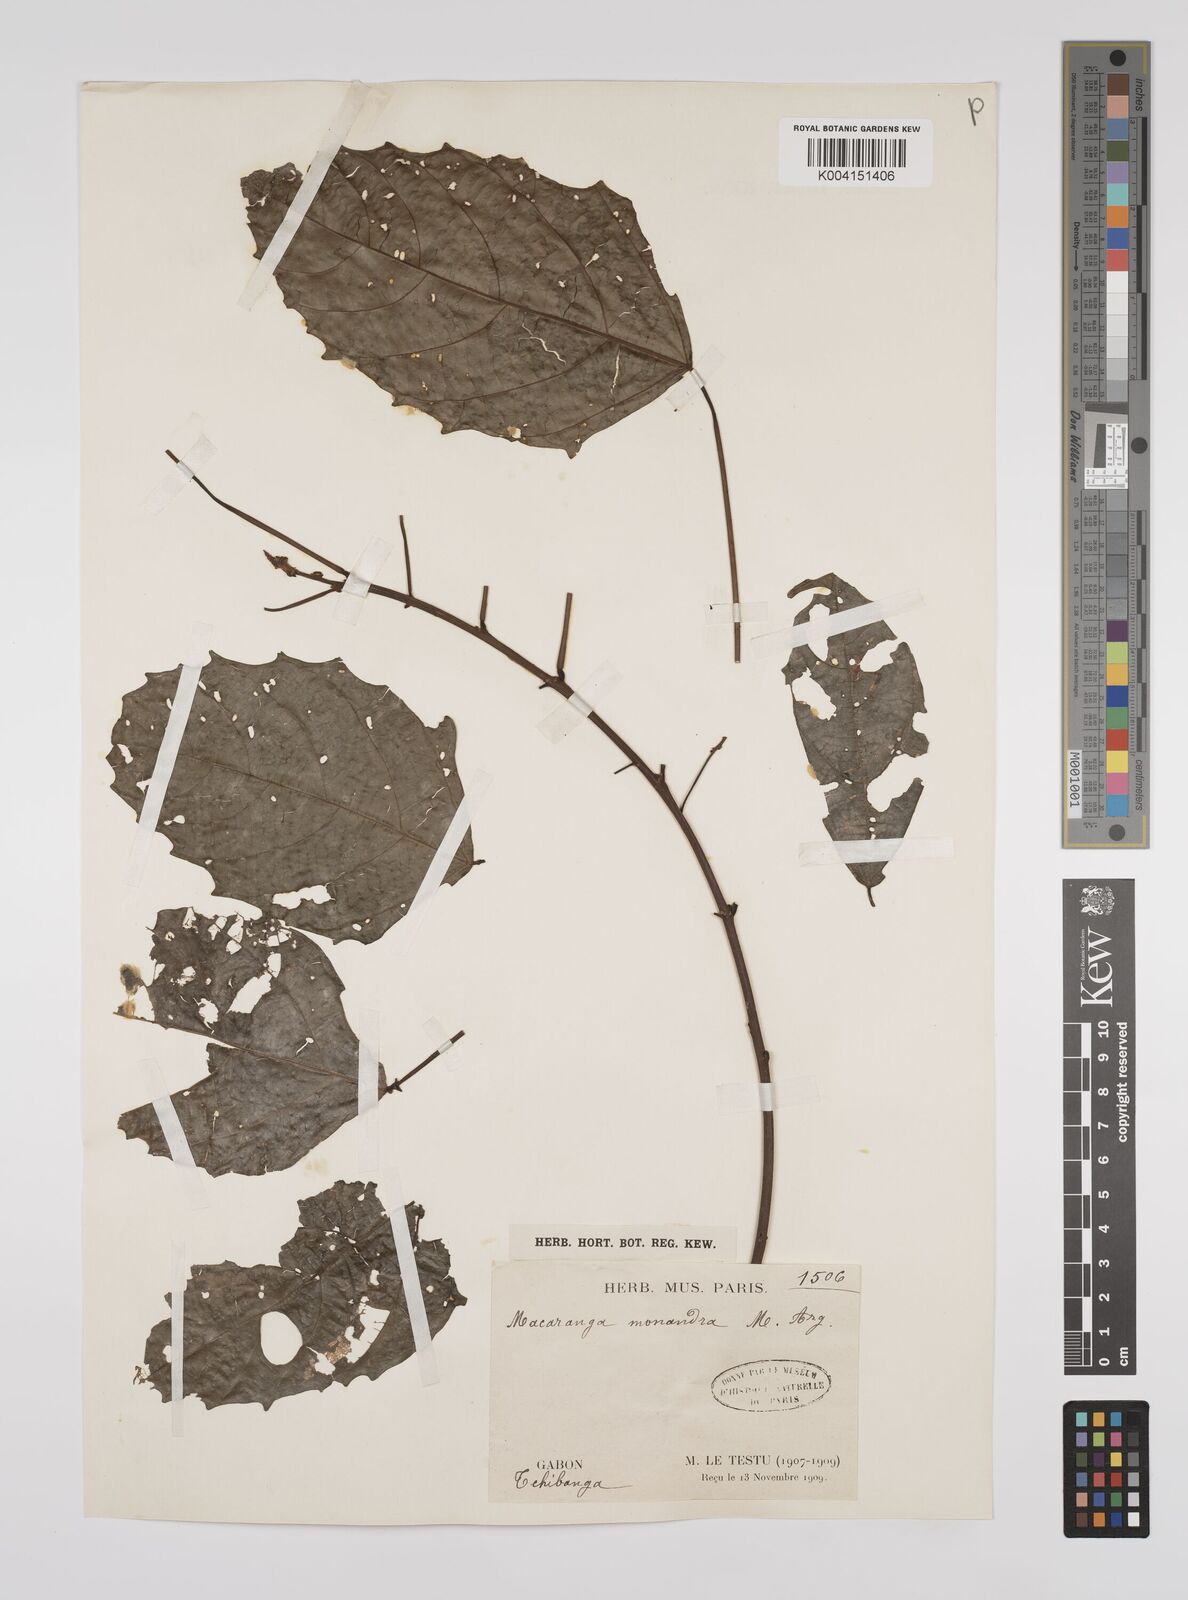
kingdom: Plantae
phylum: Tracheophyta
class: Magnoliopsida
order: Malpighiales
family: Euphorbiaceae
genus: Macaranga
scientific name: Macaranga monandra
